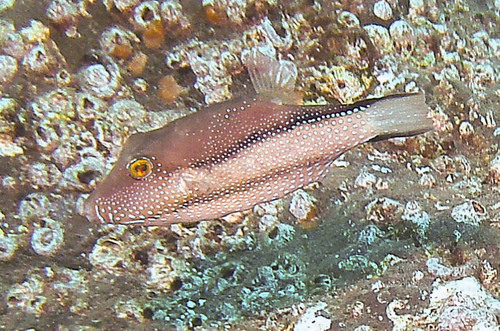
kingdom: Animalia
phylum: Chordata
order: Tetraodontiformes
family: Tetraodontidae
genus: Canthigaster
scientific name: Canthigaster capistrata
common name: Macaronesian sharpnose-puffer
